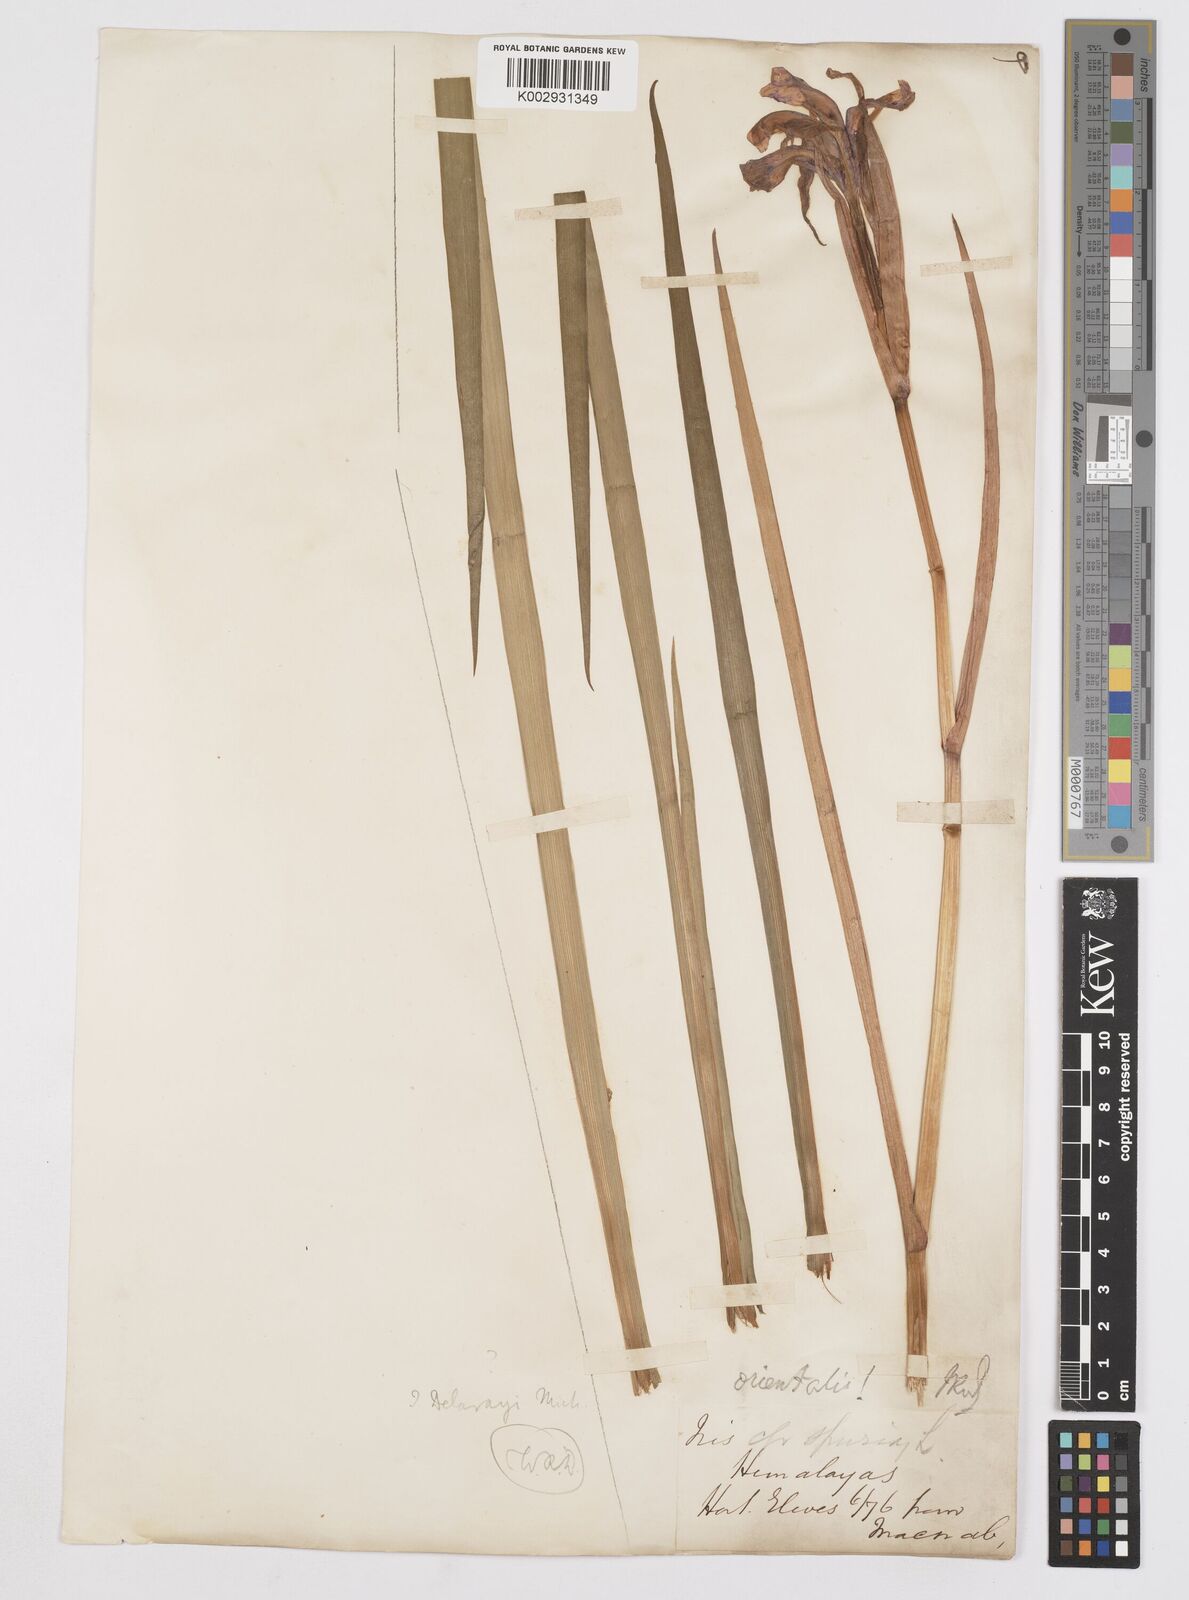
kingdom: Plantae
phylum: Tracheophyta
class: Liliopsida
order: Asparagales
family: Iridaceae
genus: Iris
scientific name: Iris
